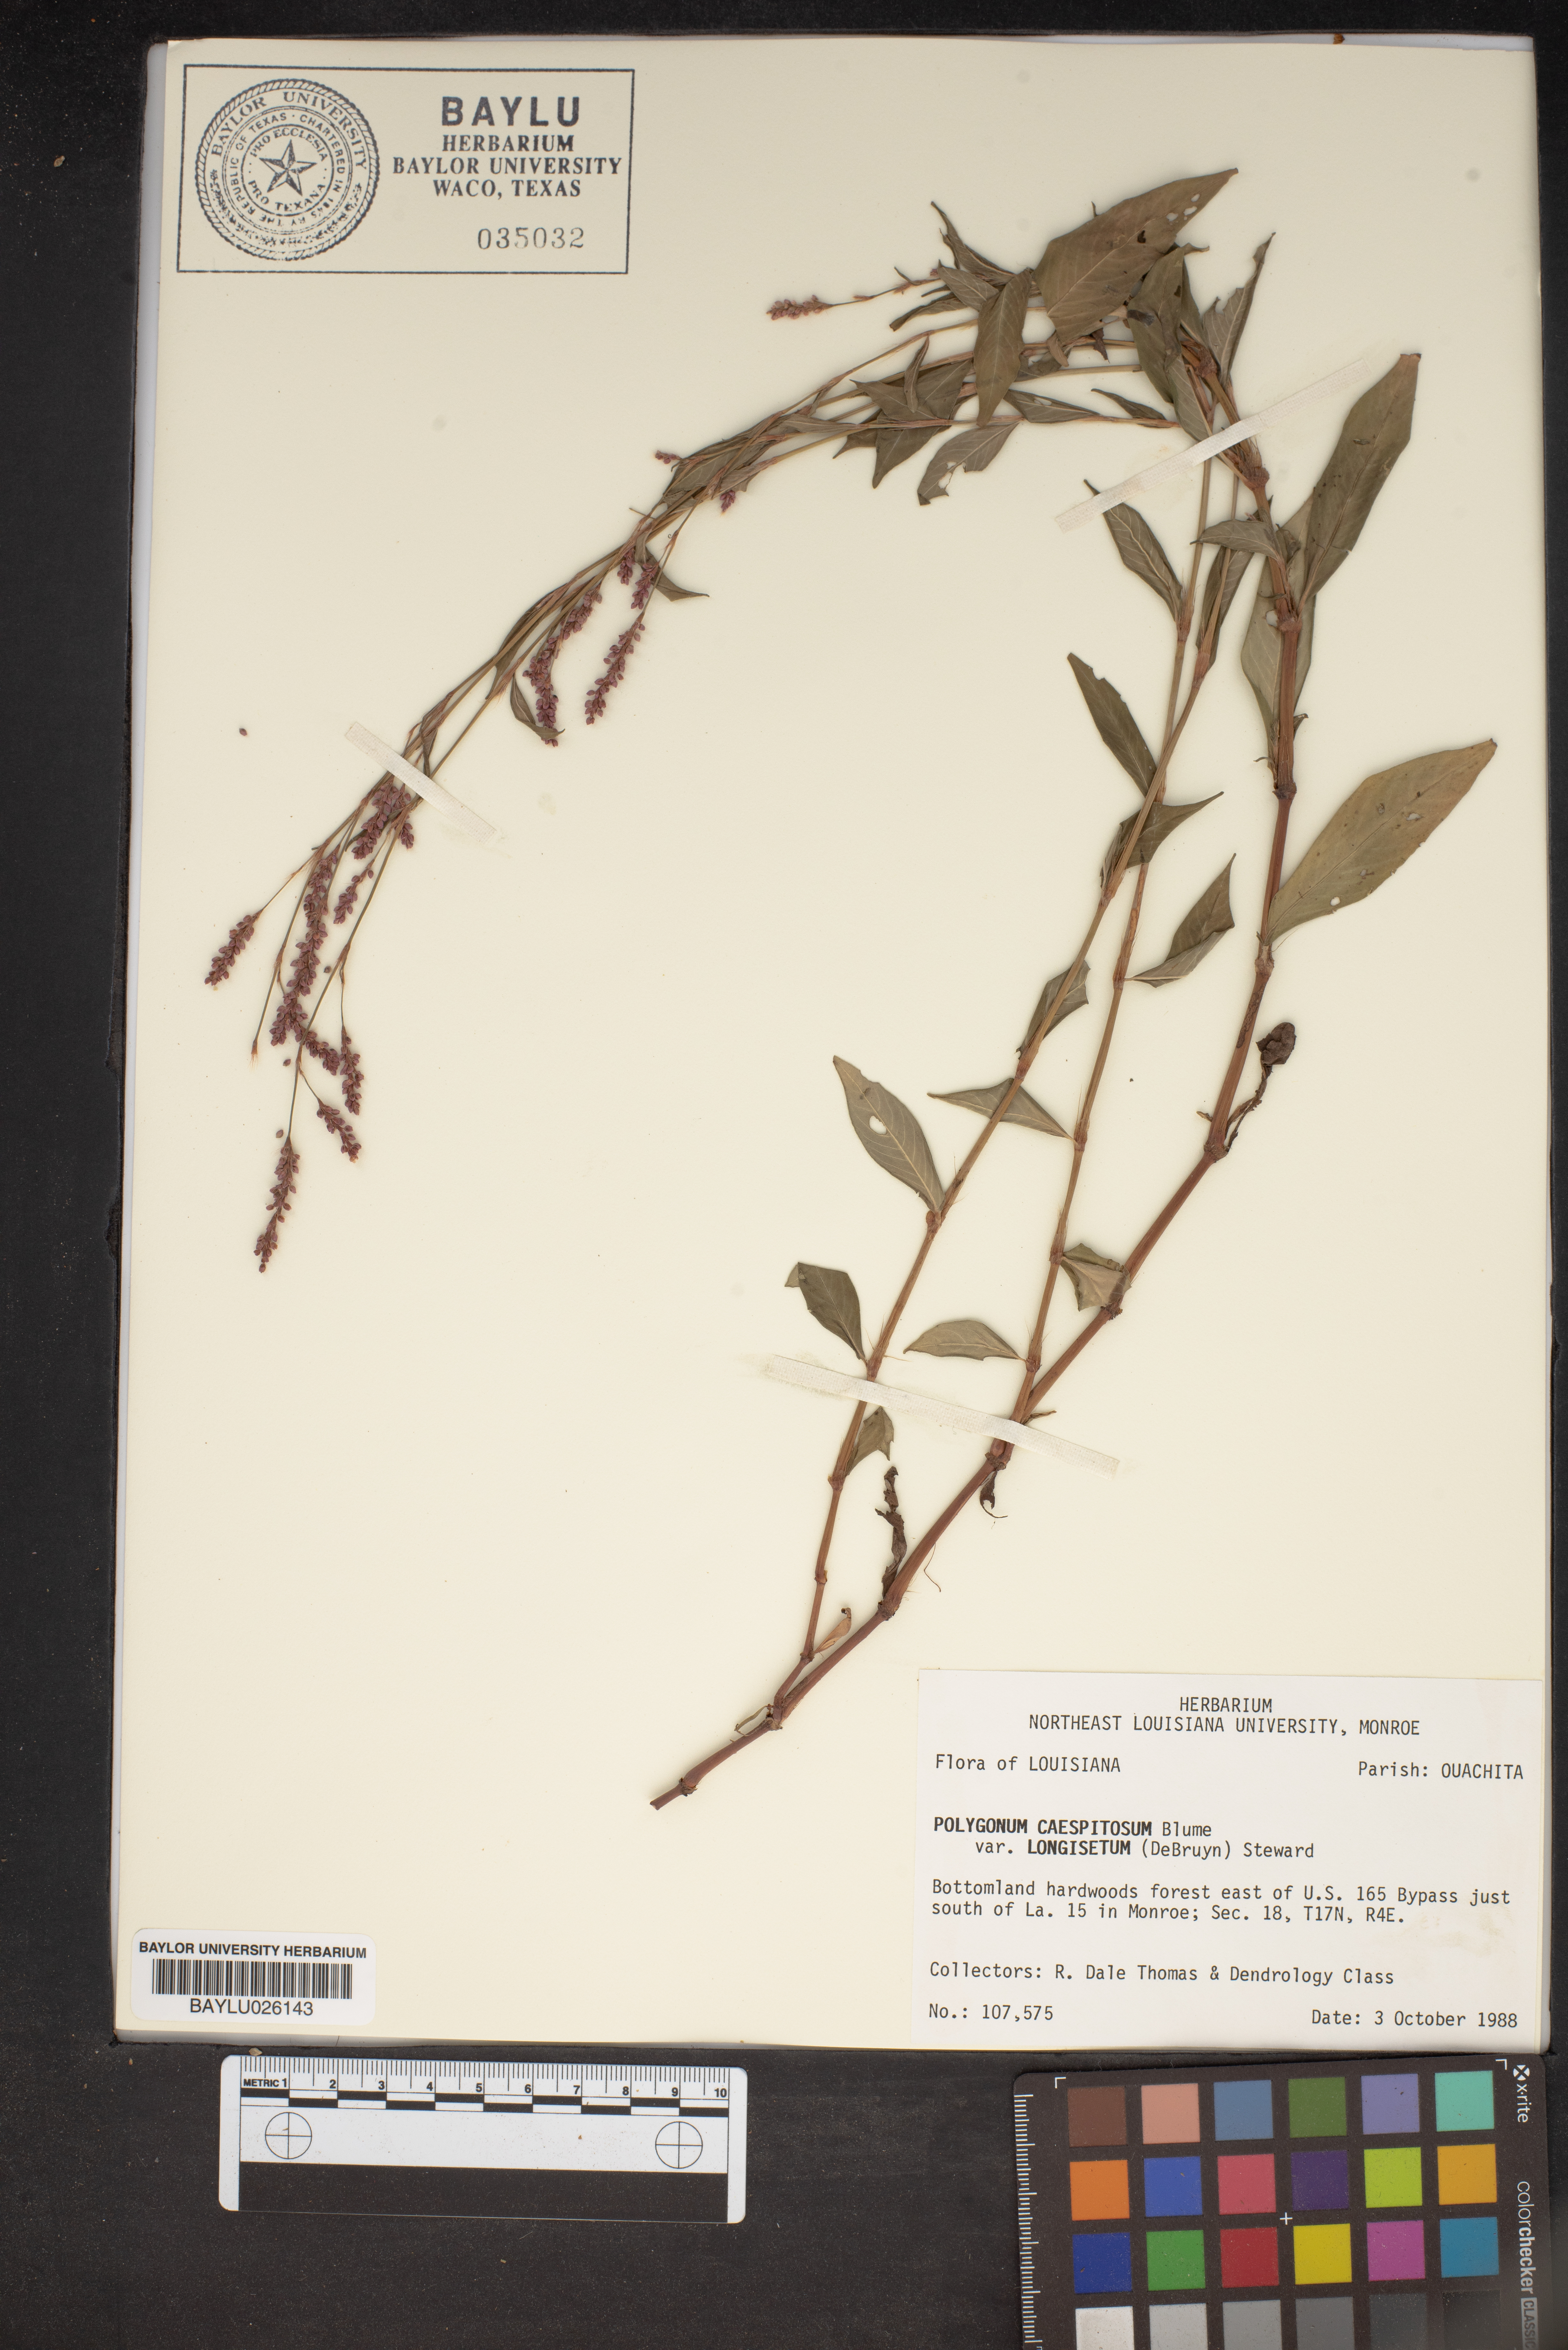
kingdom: Plantae
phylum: Tracheophyta
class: Magnoliopsida
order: Caryophyllales
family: Polygonaceae
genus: Persicaria
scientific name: Persicaria longiseta
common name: Bristly lady's-thumb
